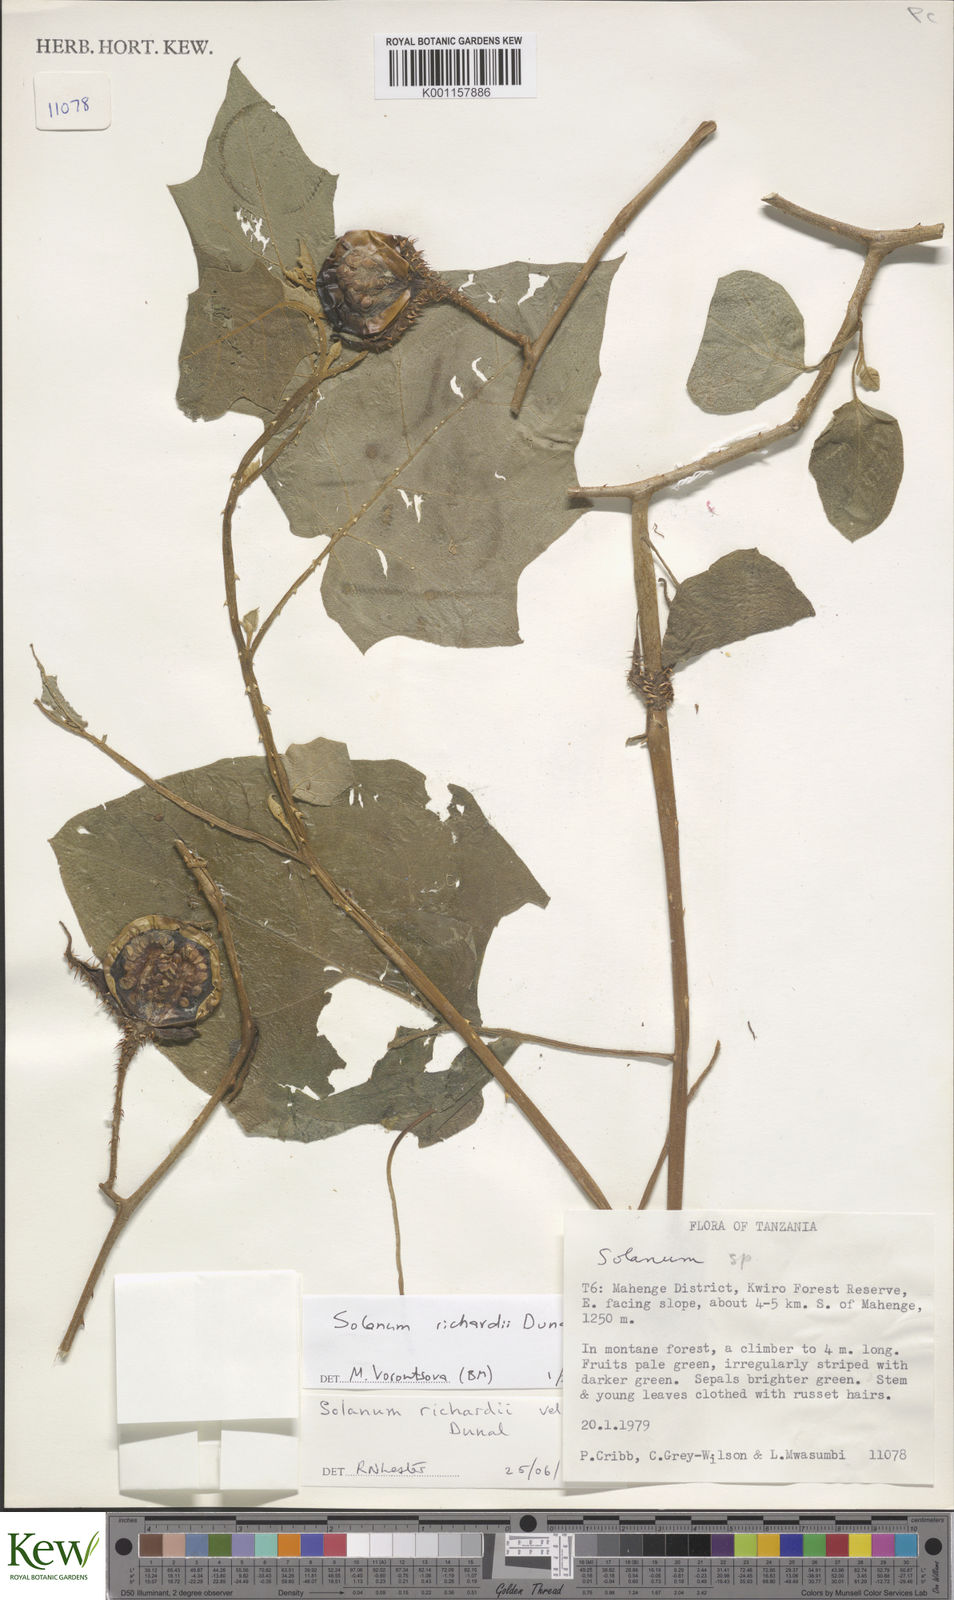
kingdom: Plantae
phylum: Tracheophyta
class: Magnoliopsida
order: Solanales
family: Solanaceae
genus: Solanum
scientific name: Solanum richardii
